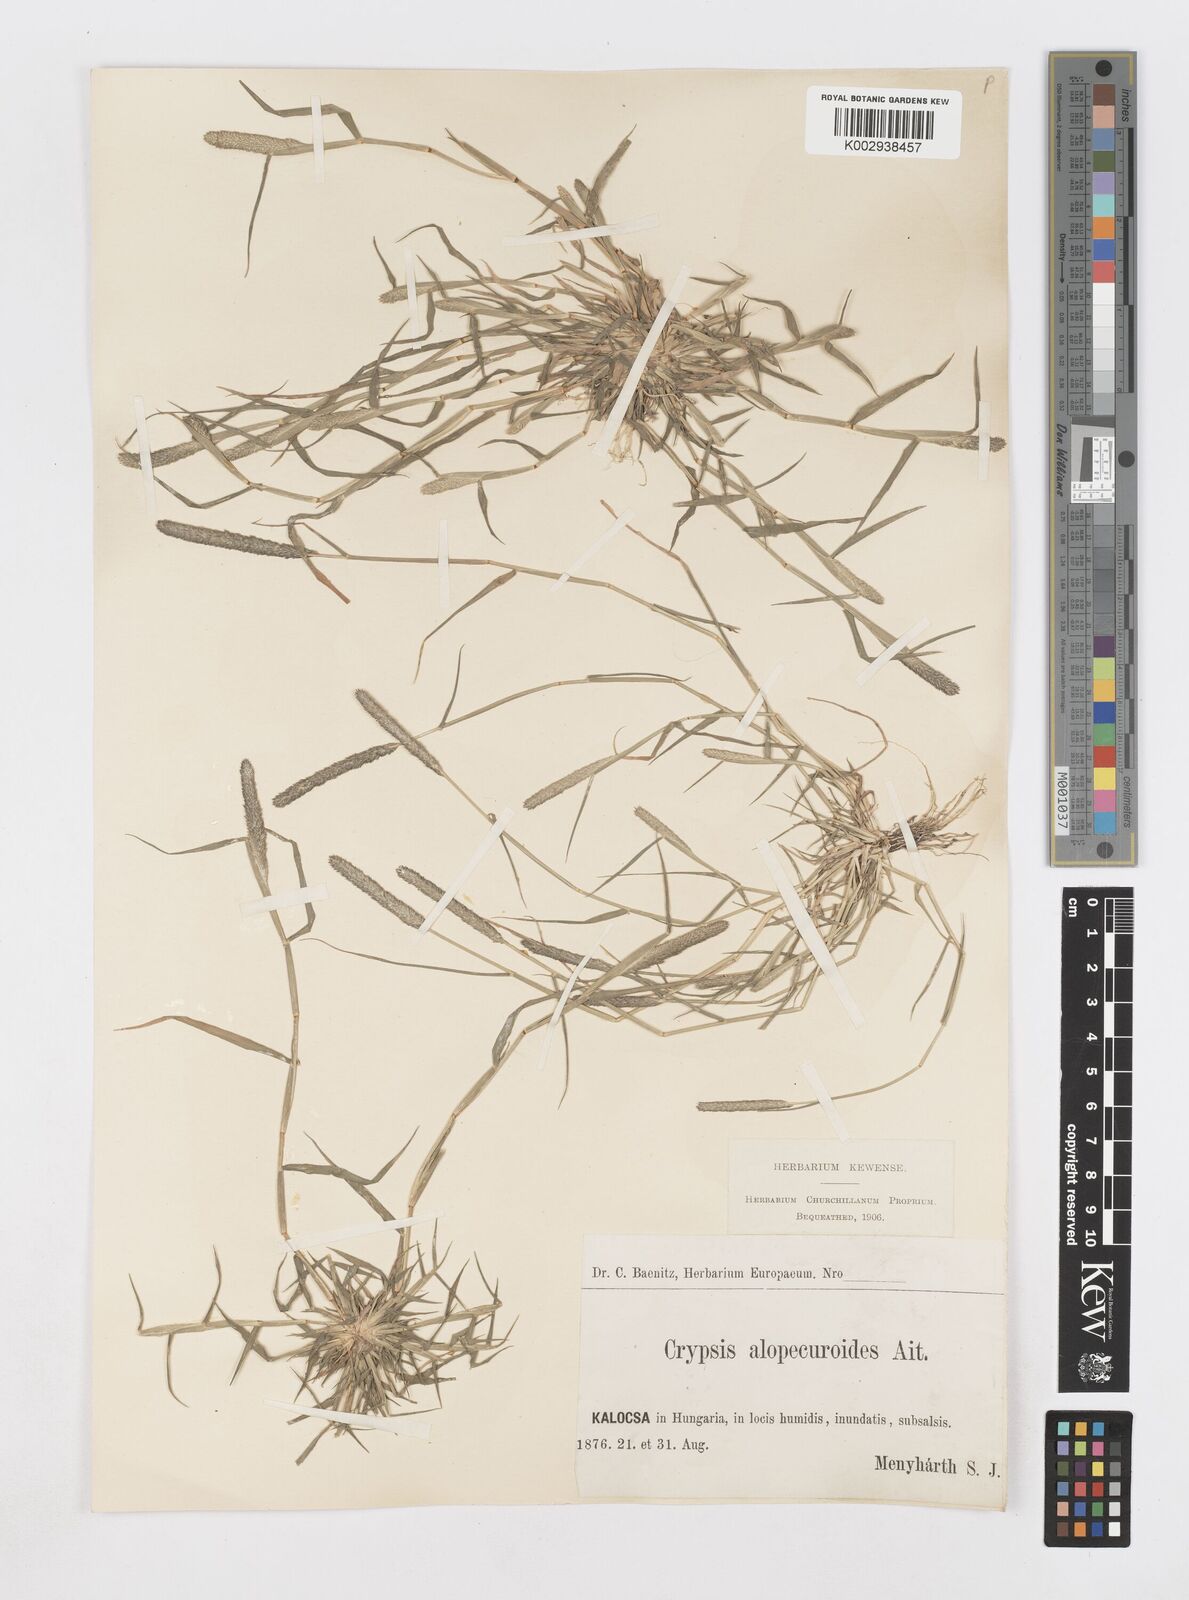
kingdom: Plantae
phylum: Tracheophyta
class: Liliopsida
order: Poales
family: Poaceae
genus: Sporobolus
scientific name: Sporobolus alopecuroides
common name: Foxtail pricklegrass
